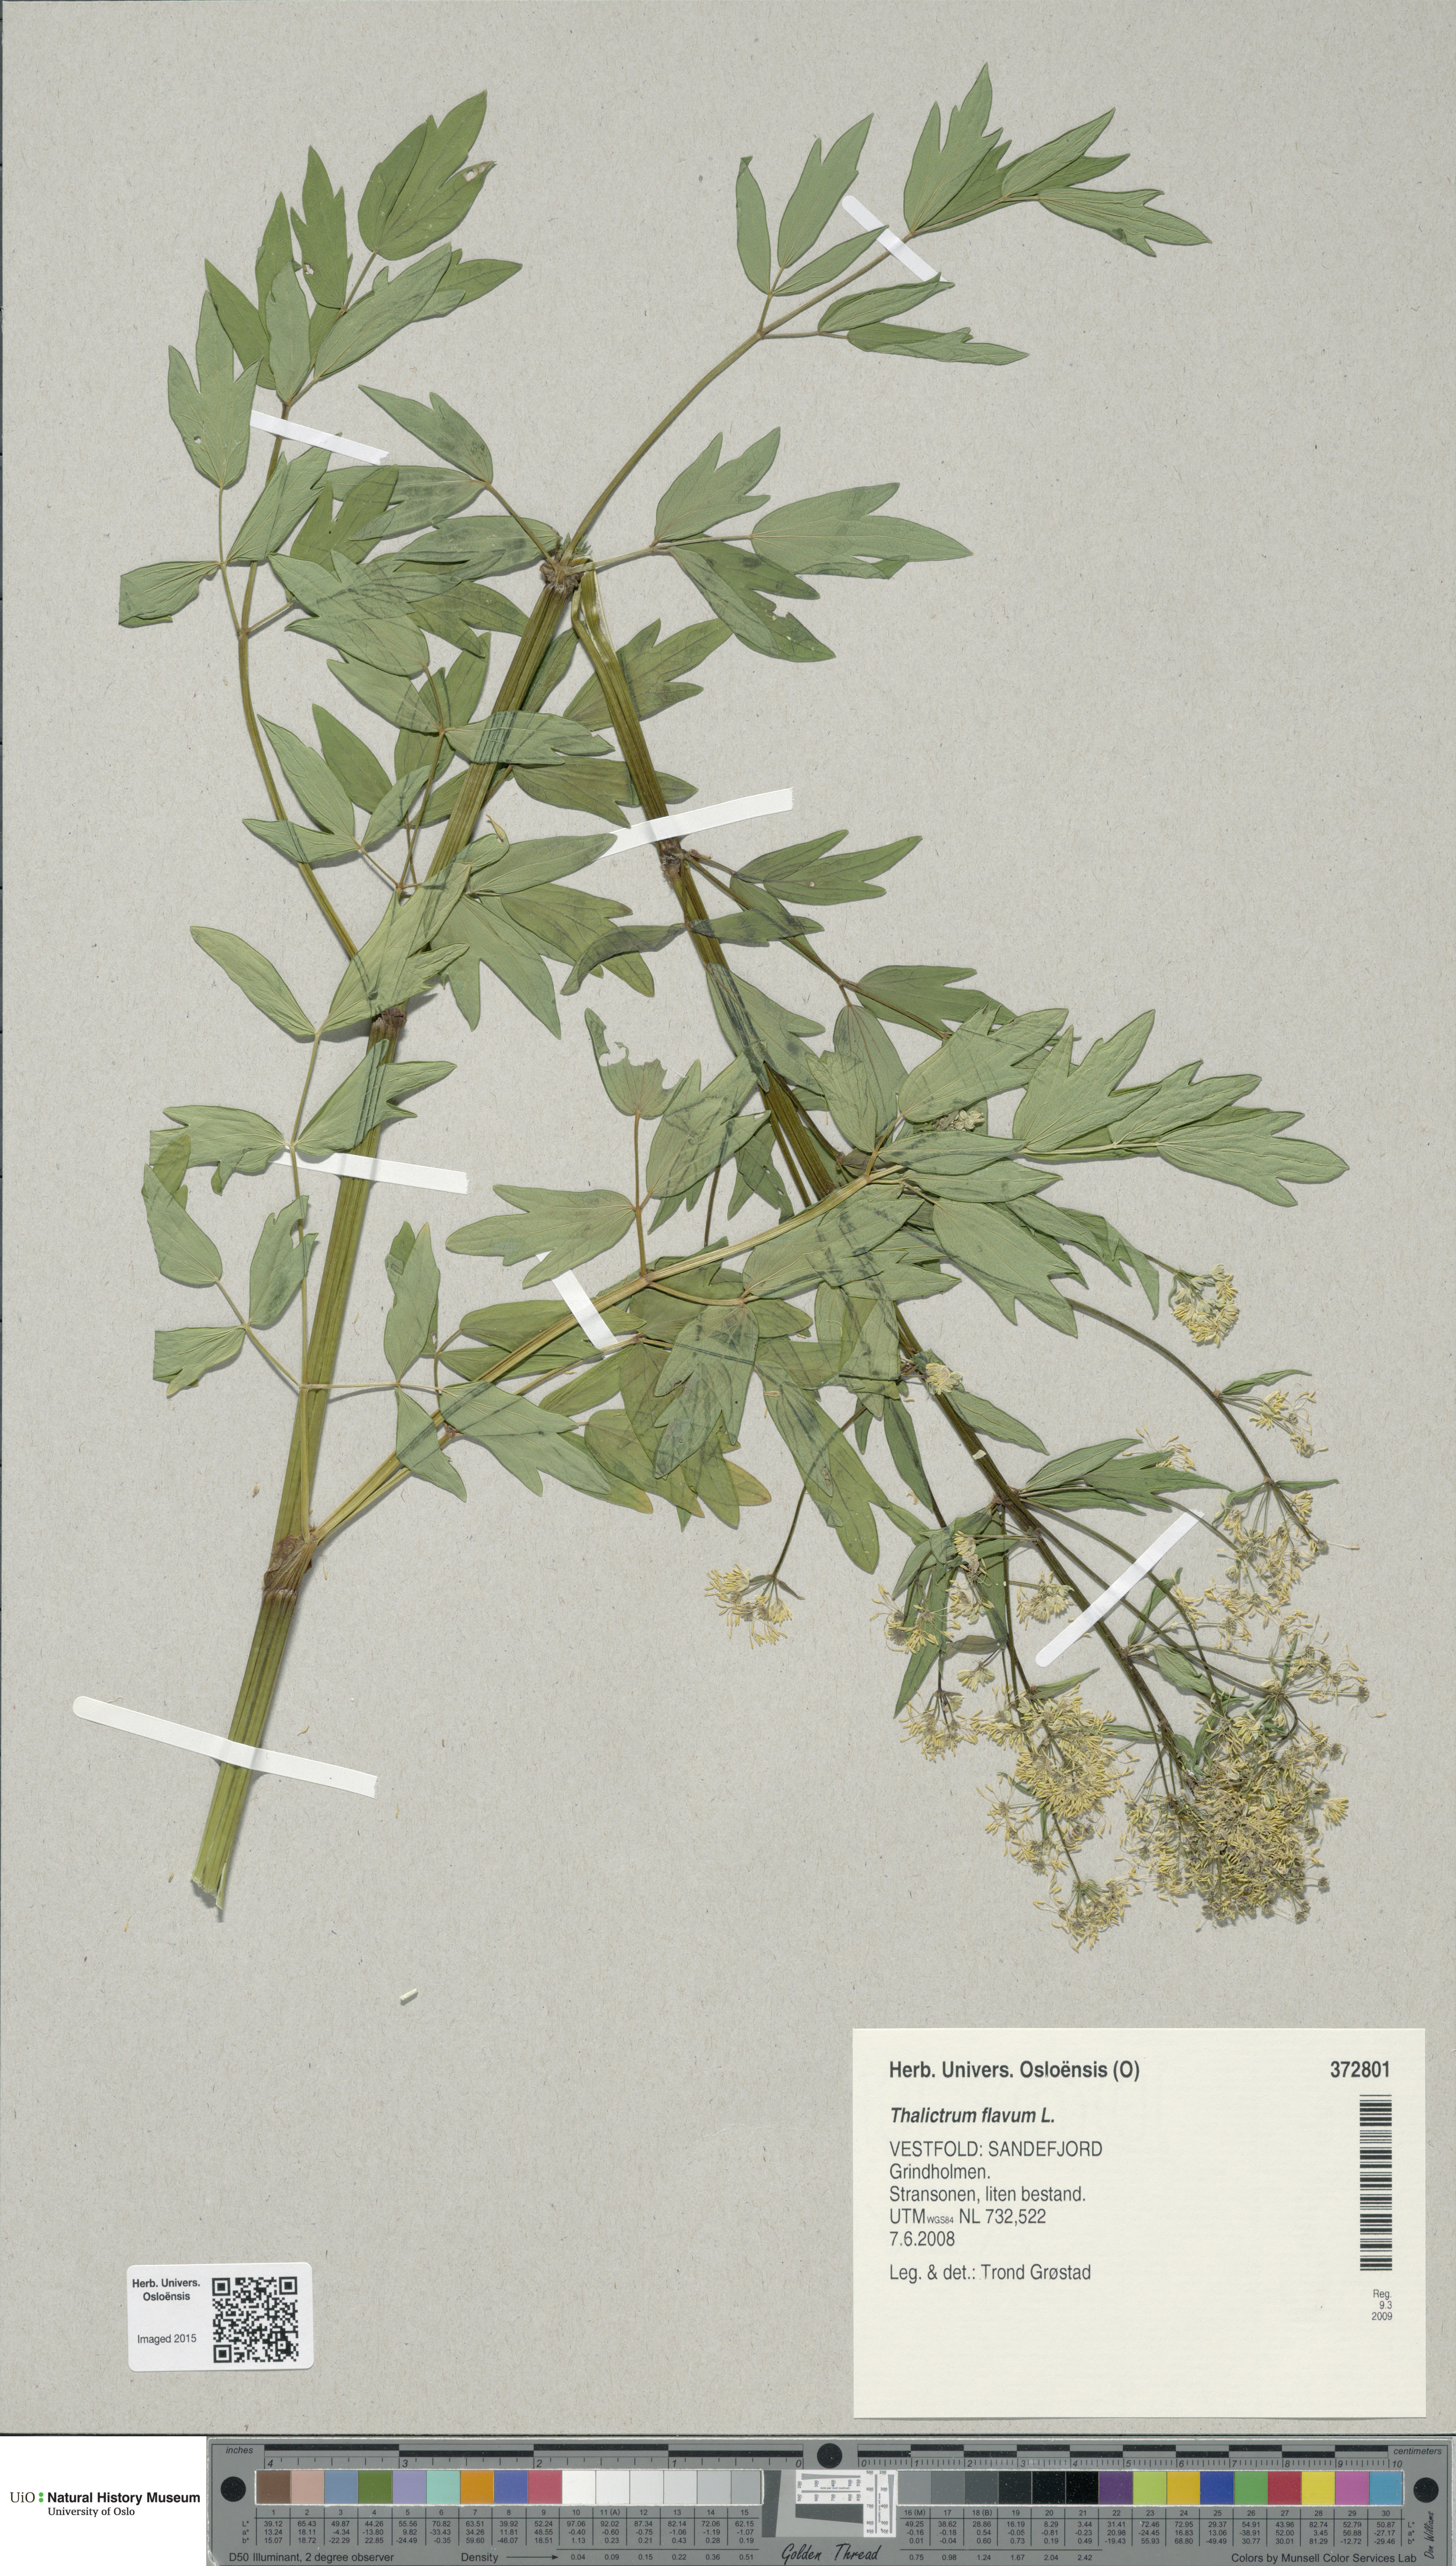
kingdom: Plantae
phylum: Tracheophyta
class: Magnoliopsida
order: Ranunculales
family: Ranunculaceae
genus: Thalictrum
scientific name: Thalictrum flavum
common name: Common meadow-rue
